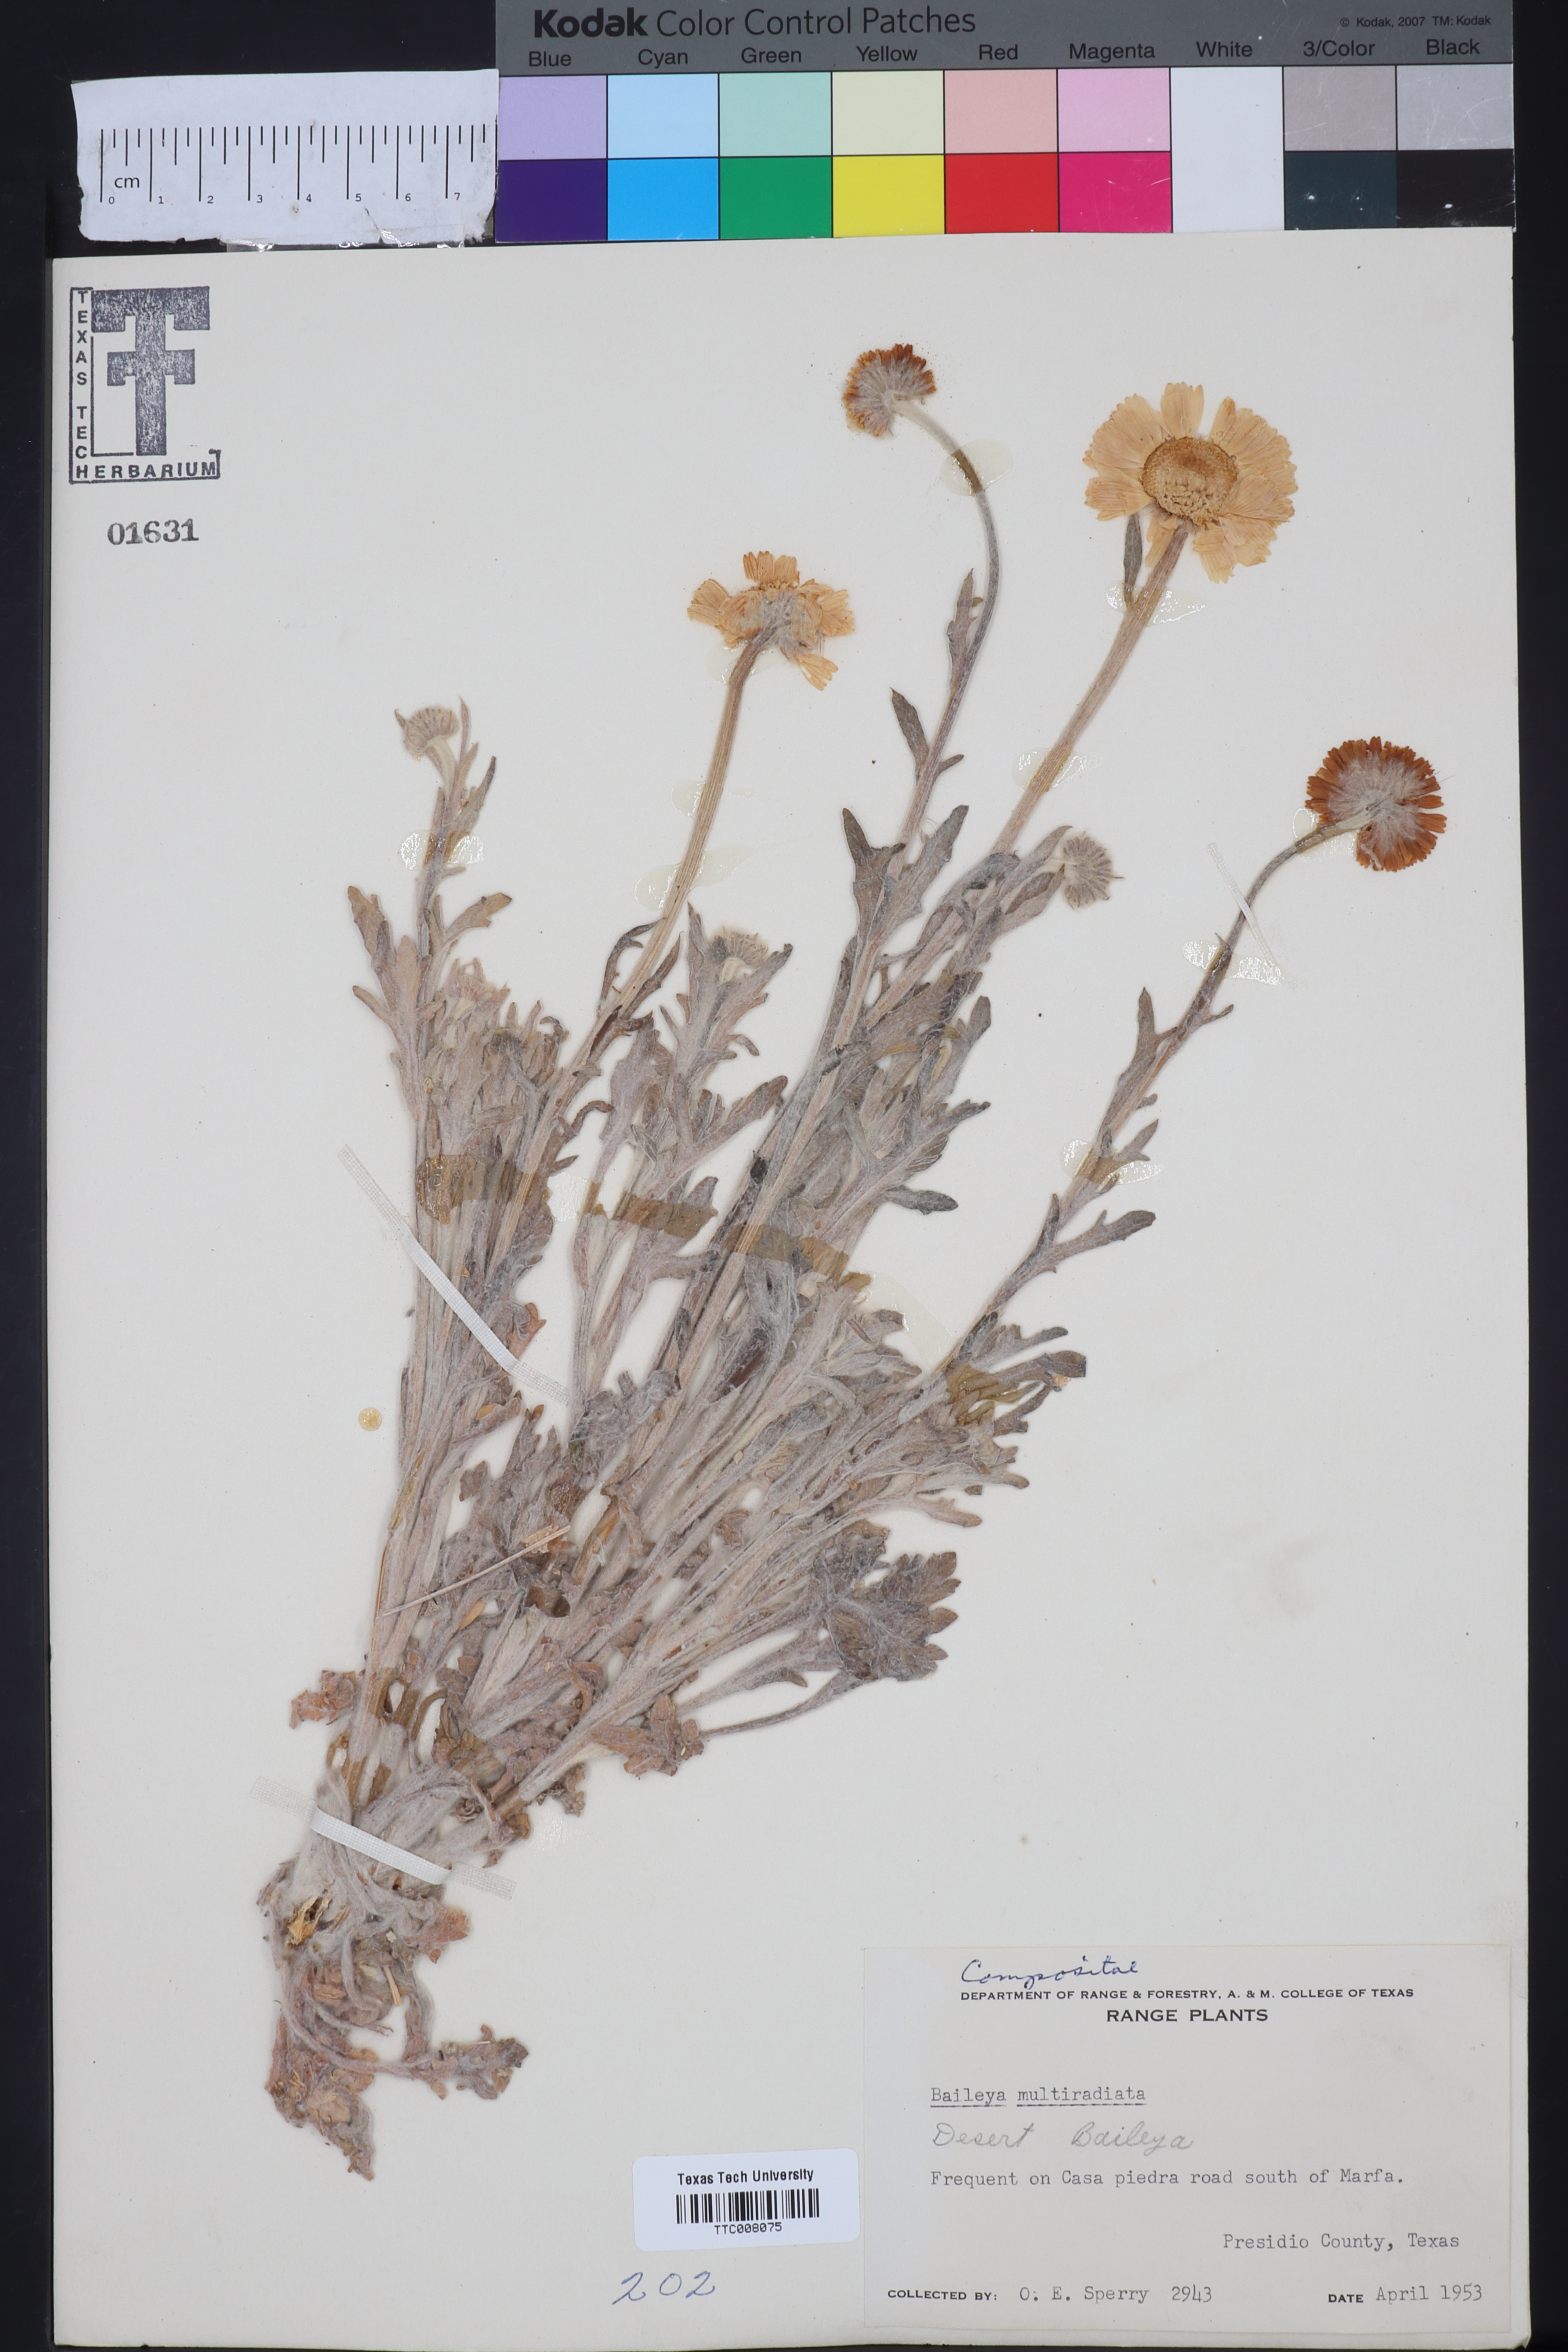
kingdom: Plantae
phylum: Tracheophyta
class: Magnoliopsida
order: Asterales
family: Asteraceae
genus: Baileya
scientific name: Baileya multiradiata
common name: Desert-marigold
